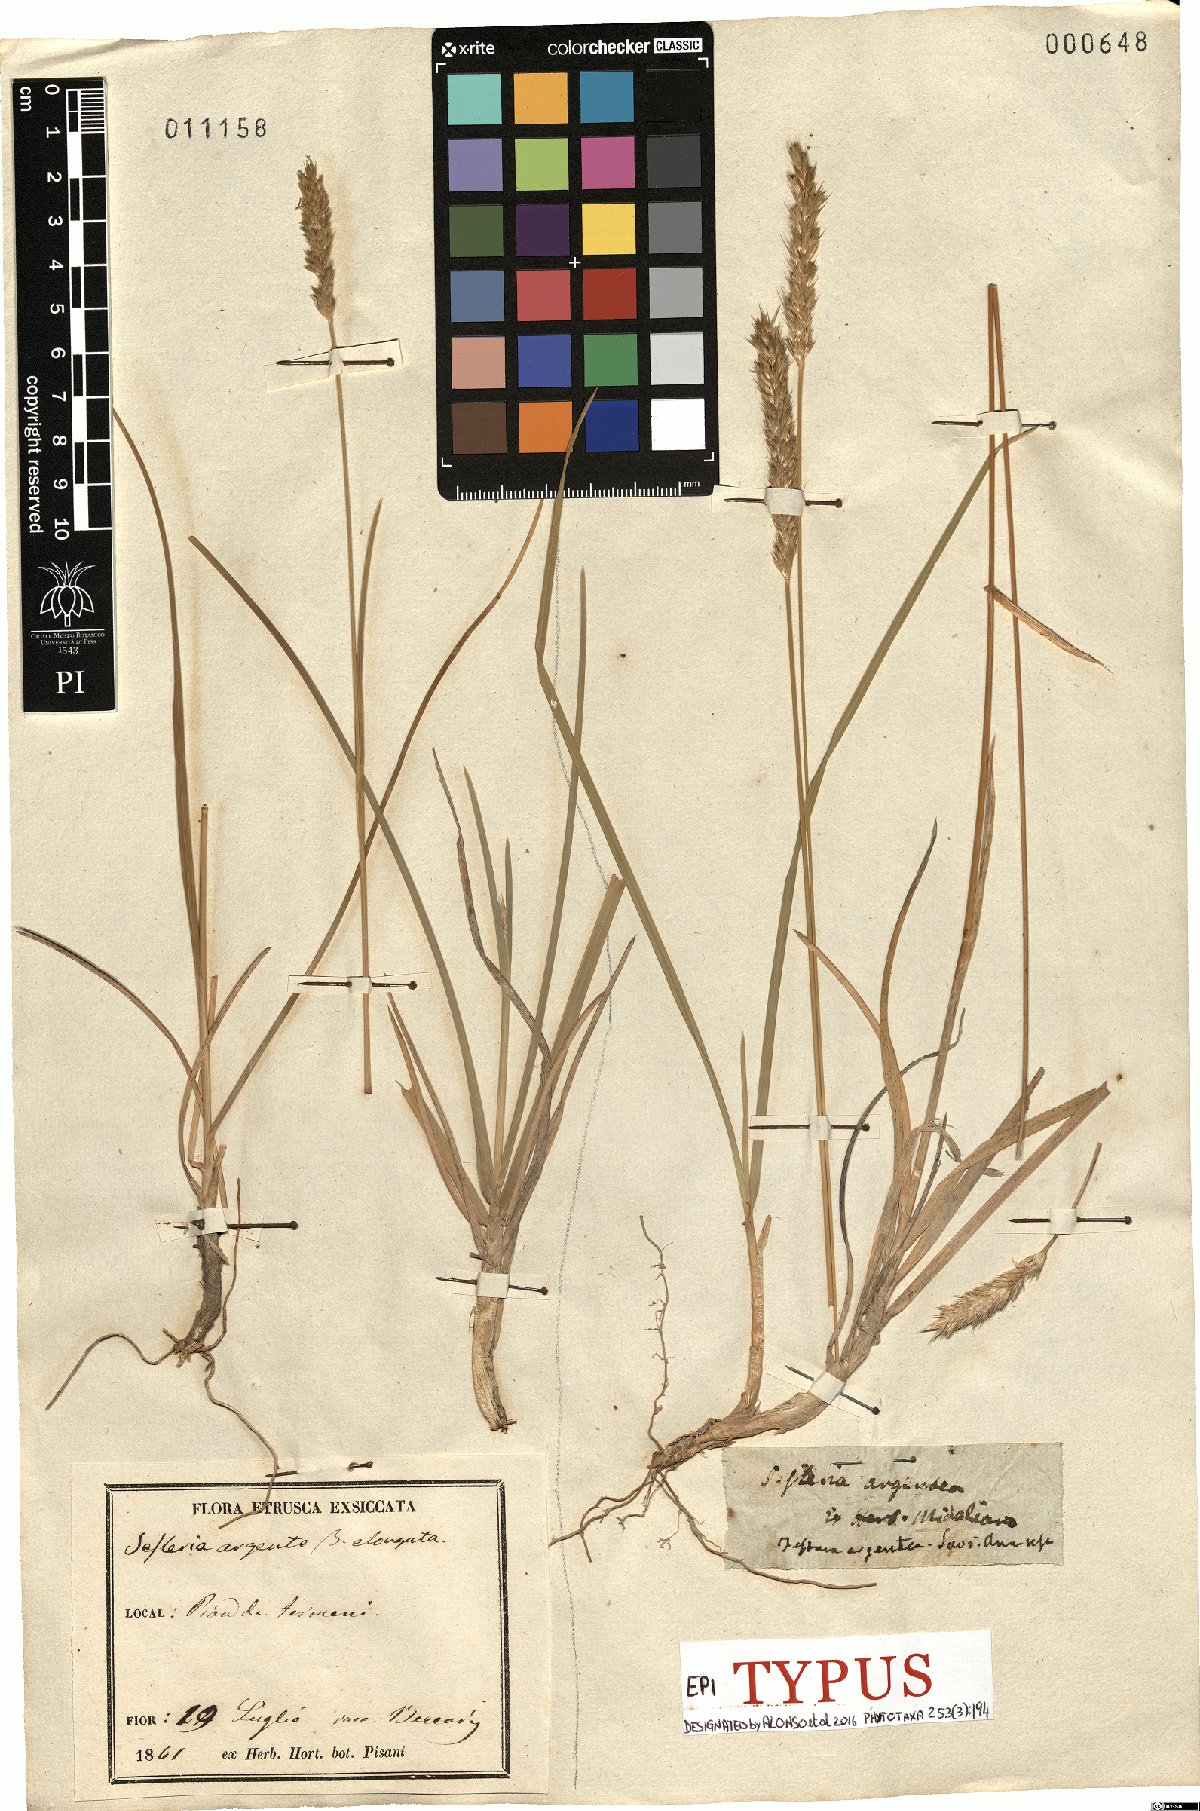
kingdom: Plantae
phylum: Tracheophyta
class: Liliopsida
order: Poales
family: Poaceae
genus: Sesleria
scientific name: Sesleria autumnalis
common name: Autumn moor grass
